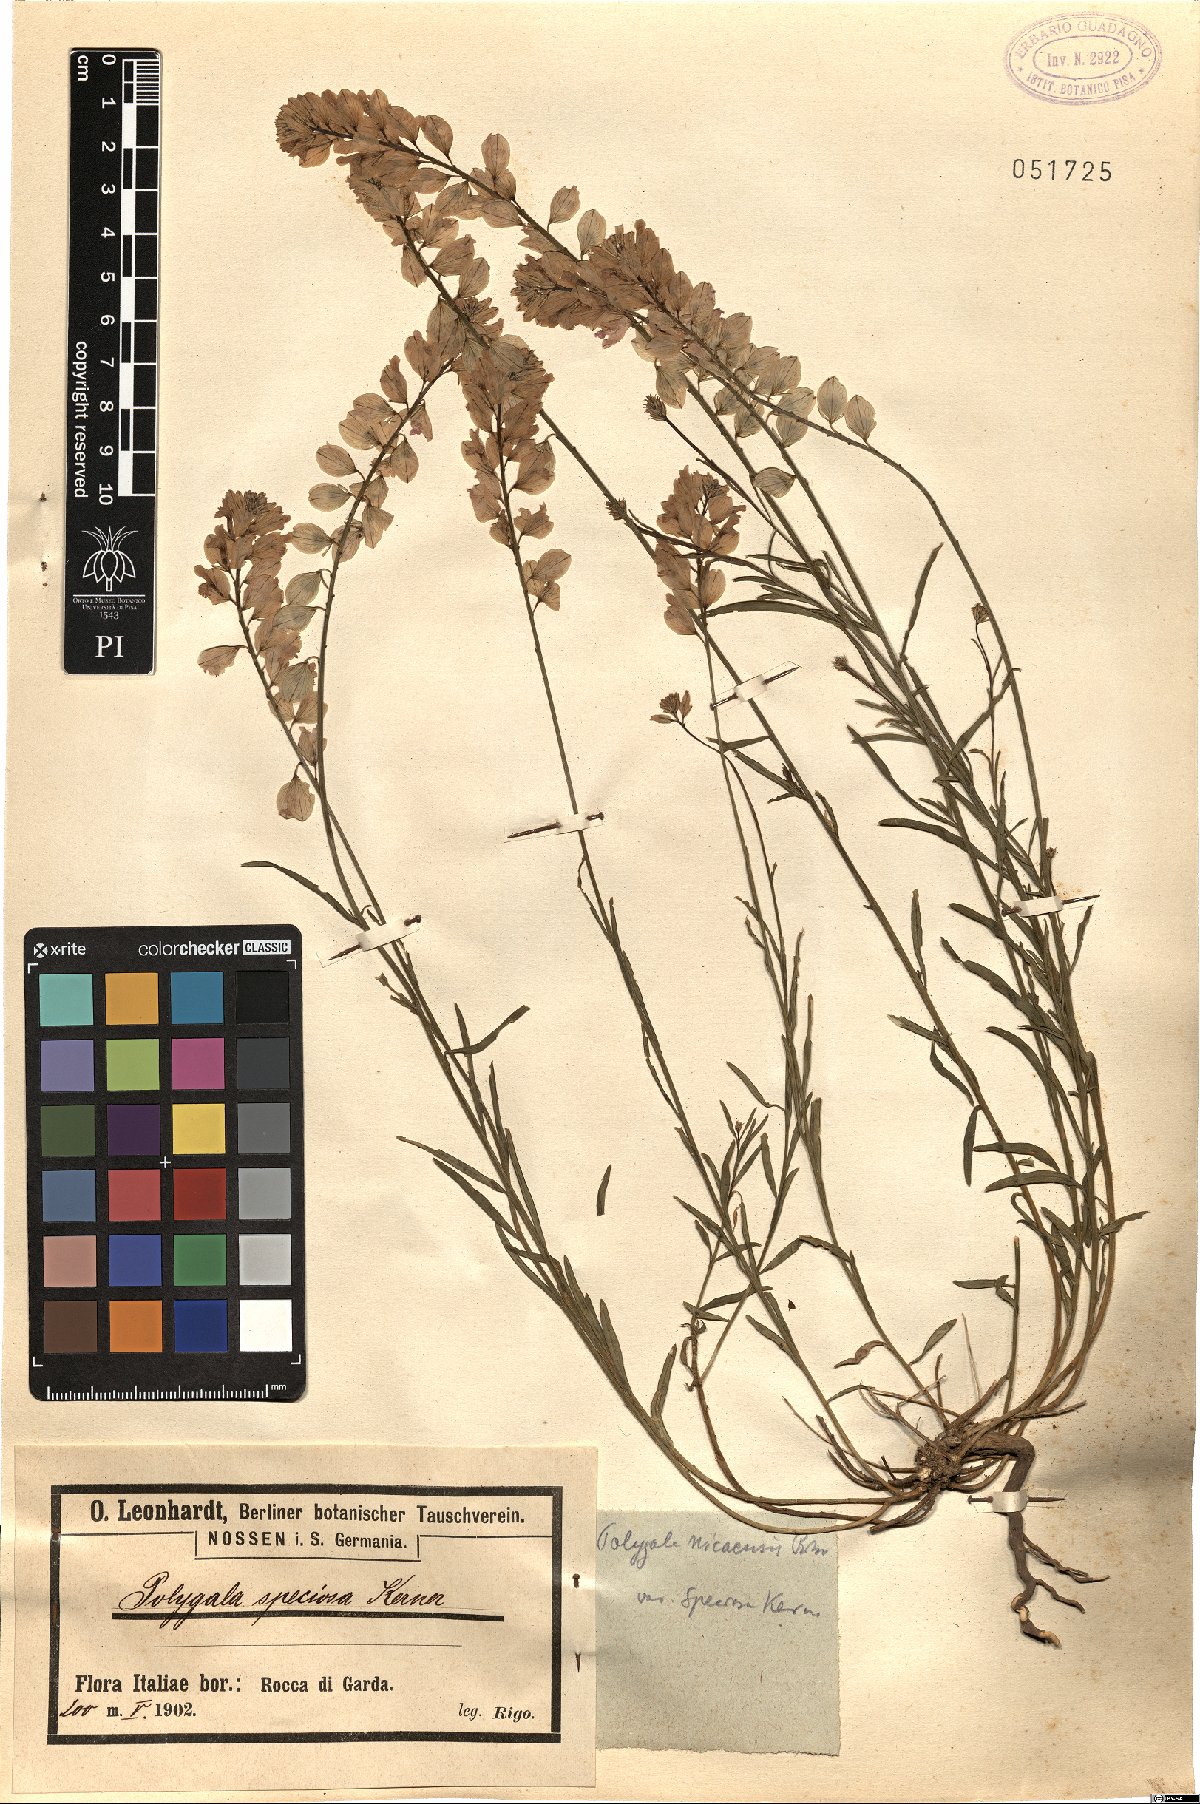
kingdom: Plantae
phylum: Tracheophyta
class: Magnoliopsida
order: Fabales
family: Polygalaceae
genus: Polygala
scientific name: Polygala forojulensis
